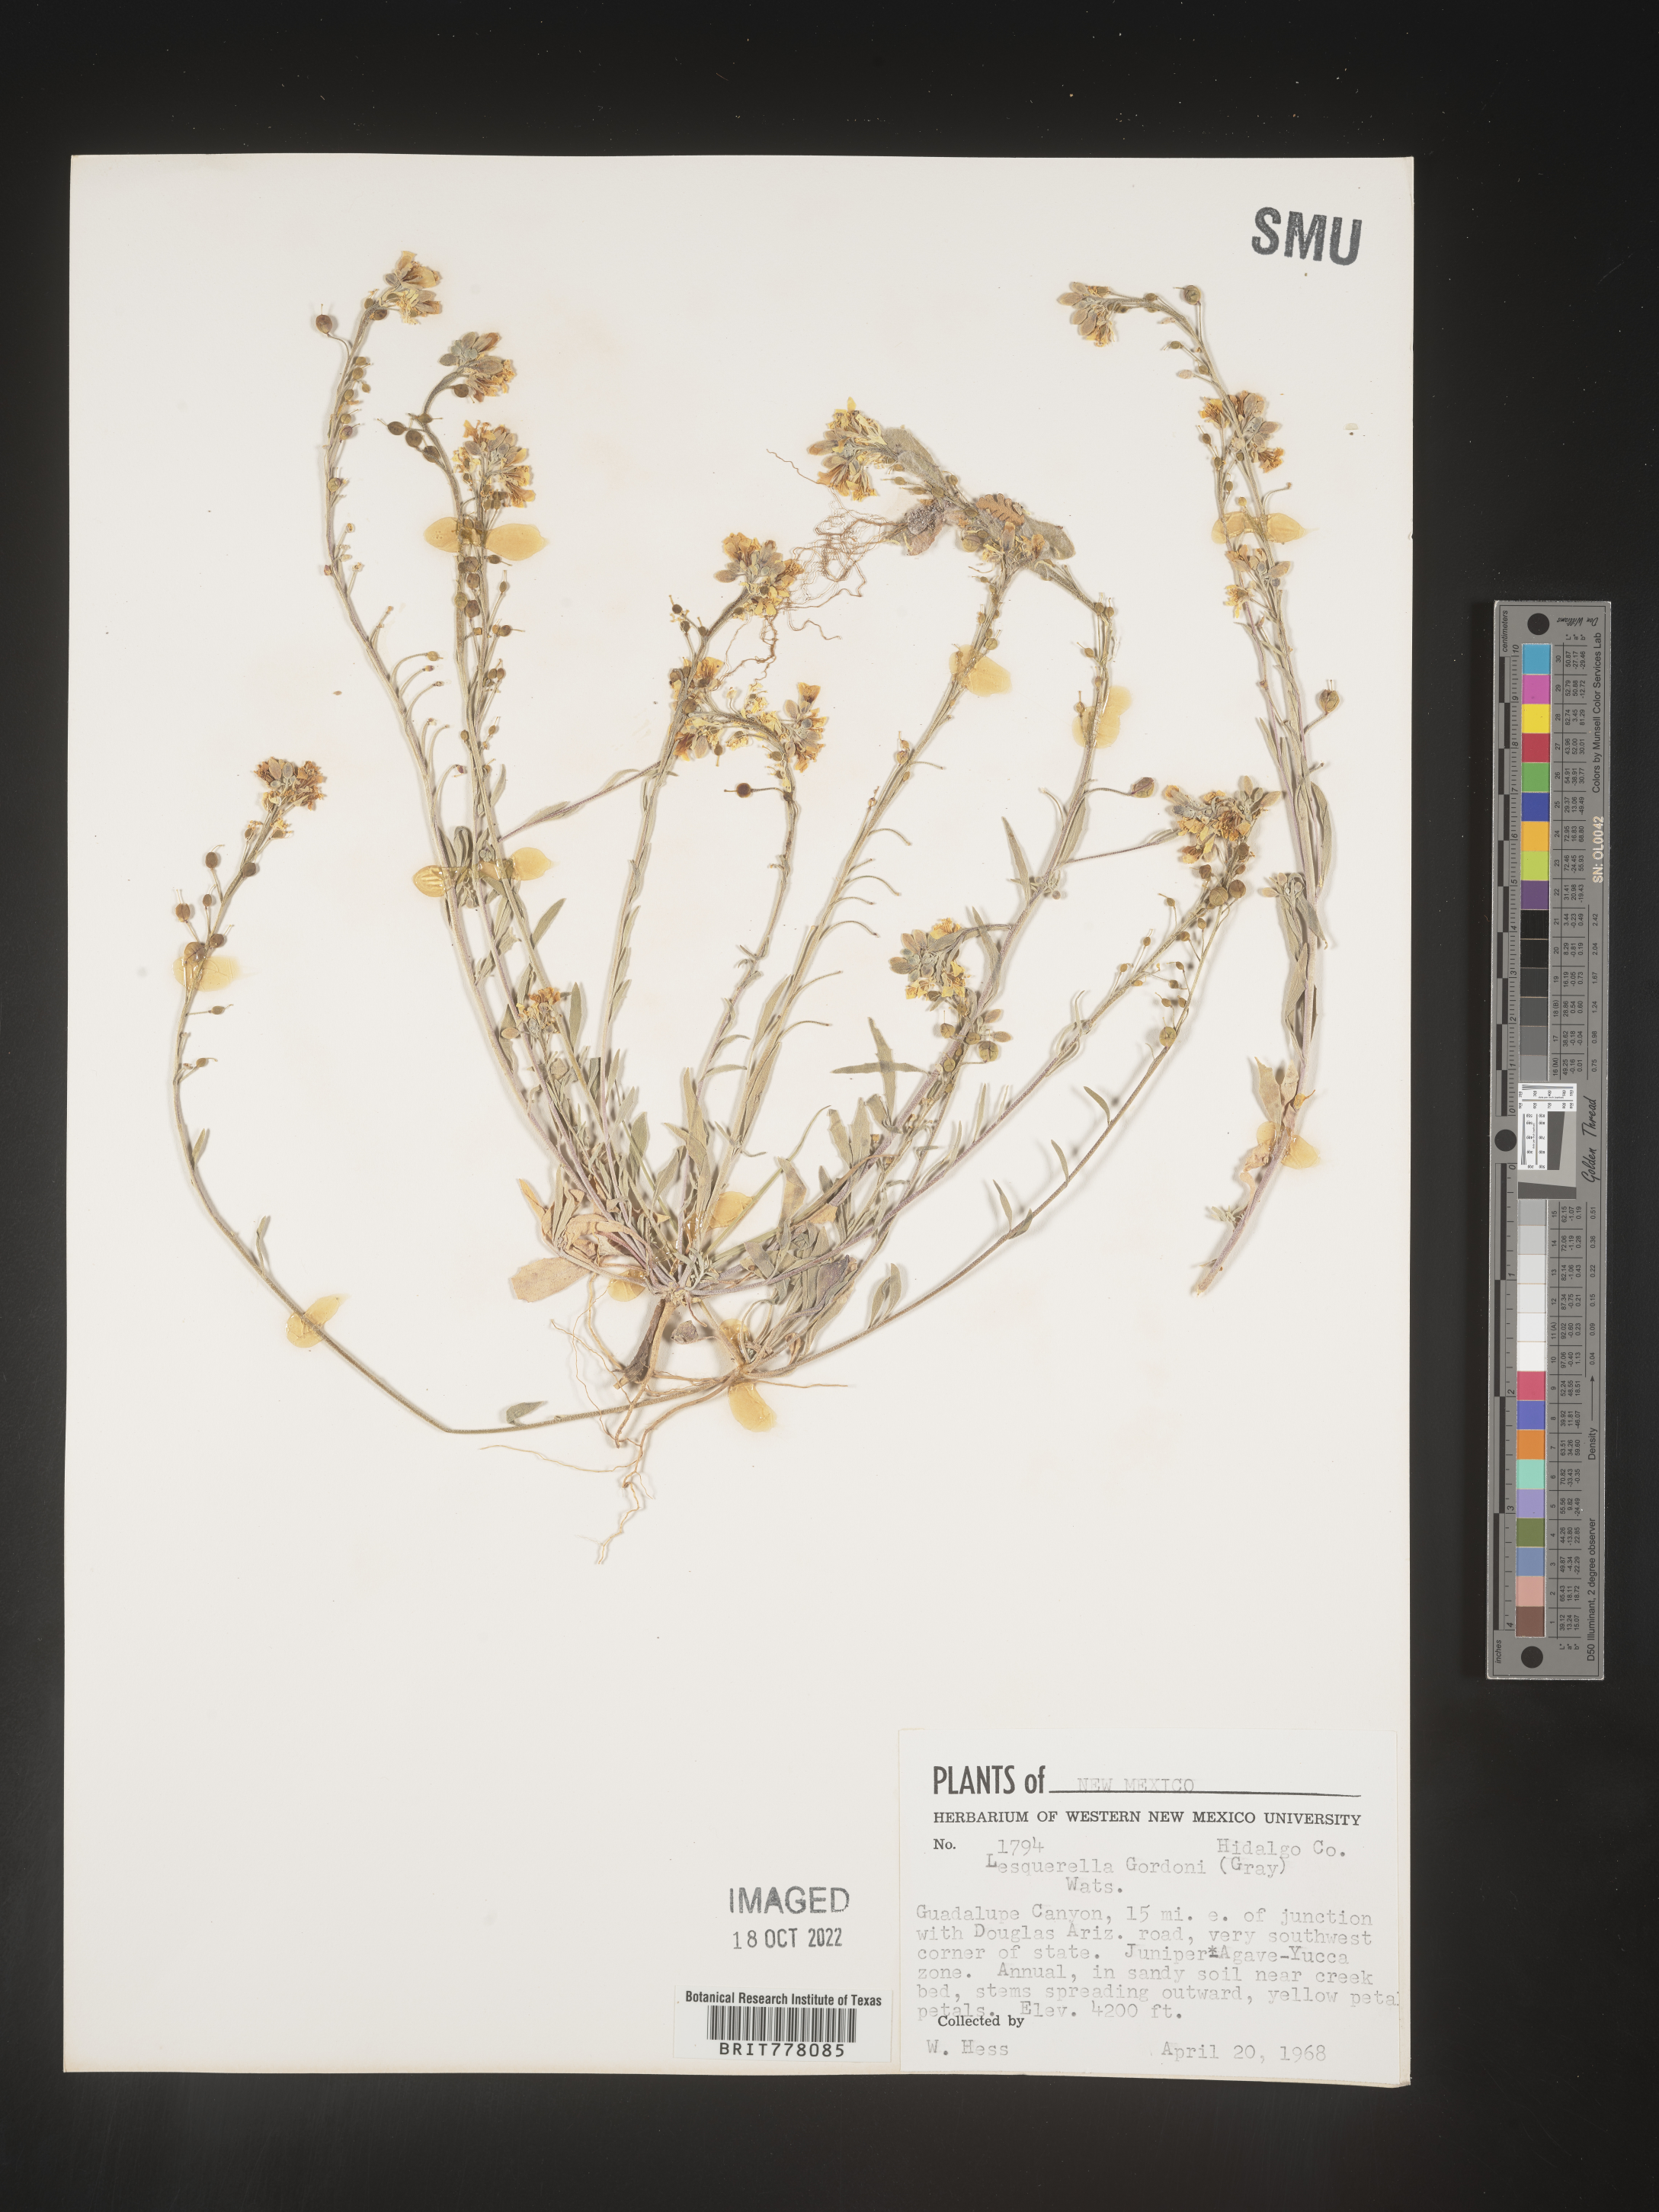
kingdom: Chromista
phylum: Cercozoa
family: Psammonobiotidae
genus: Lesquerella
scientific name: Lesquerella
